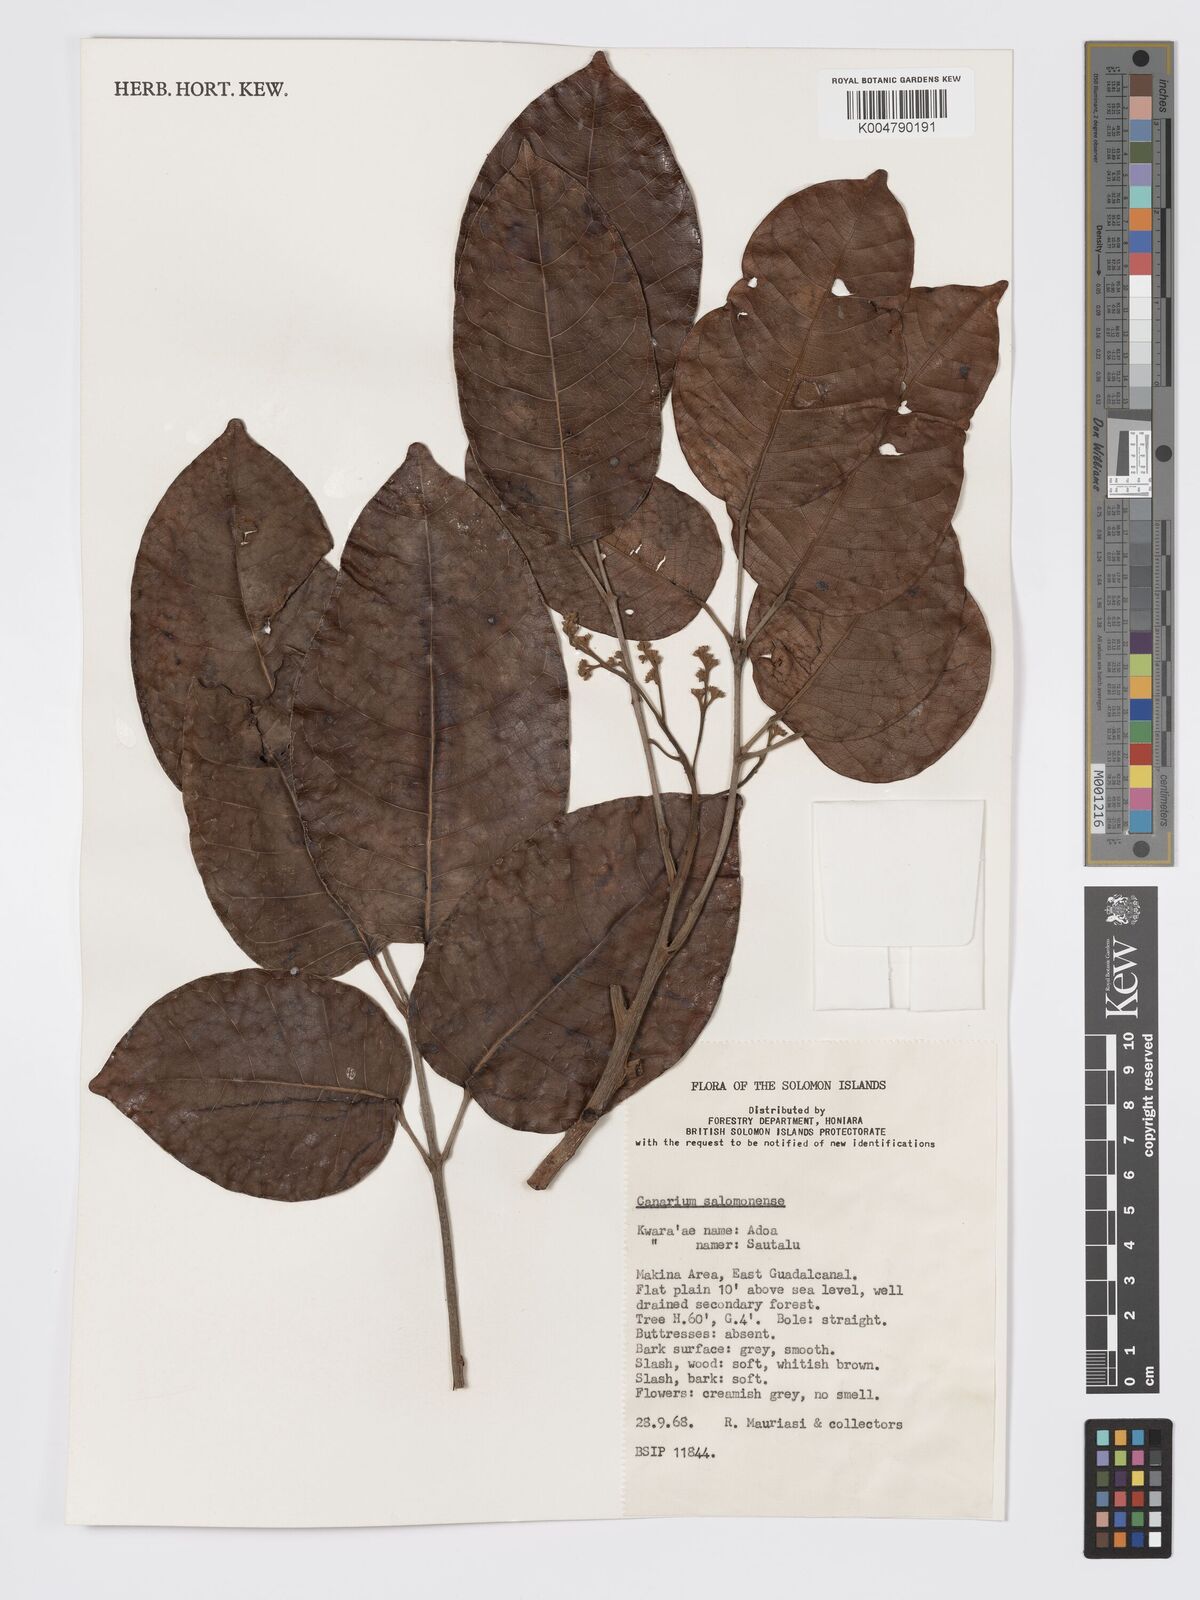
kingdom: Plantae
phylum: Tracheophyta
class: Magnoliopsida
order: Sapindales
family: Burseraceae
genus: Canarium
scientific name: Canarium salomonense
